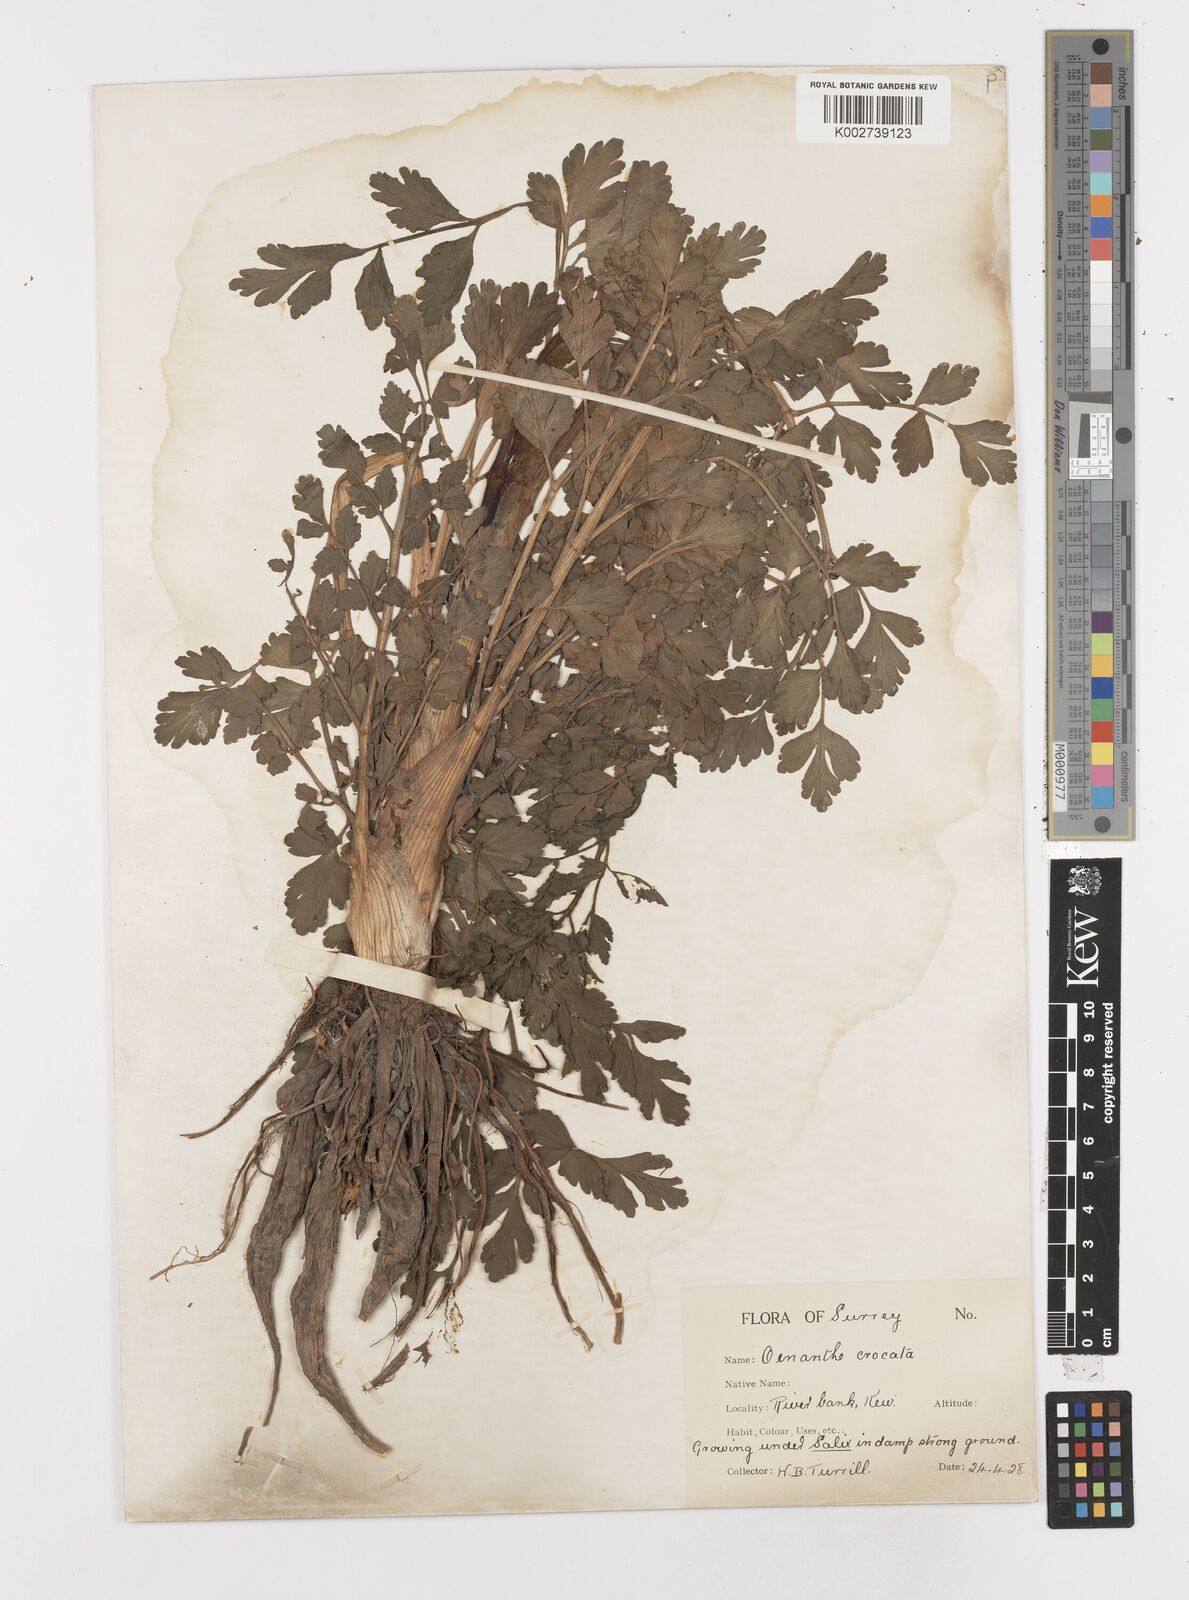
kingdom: Plantae
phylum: Tracheophyta
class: Magnoliopsida
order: Apiales
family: Apiaceae
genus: Oenanthe
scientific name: Oenanthe crocata
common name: Hemlock water-dropwort
